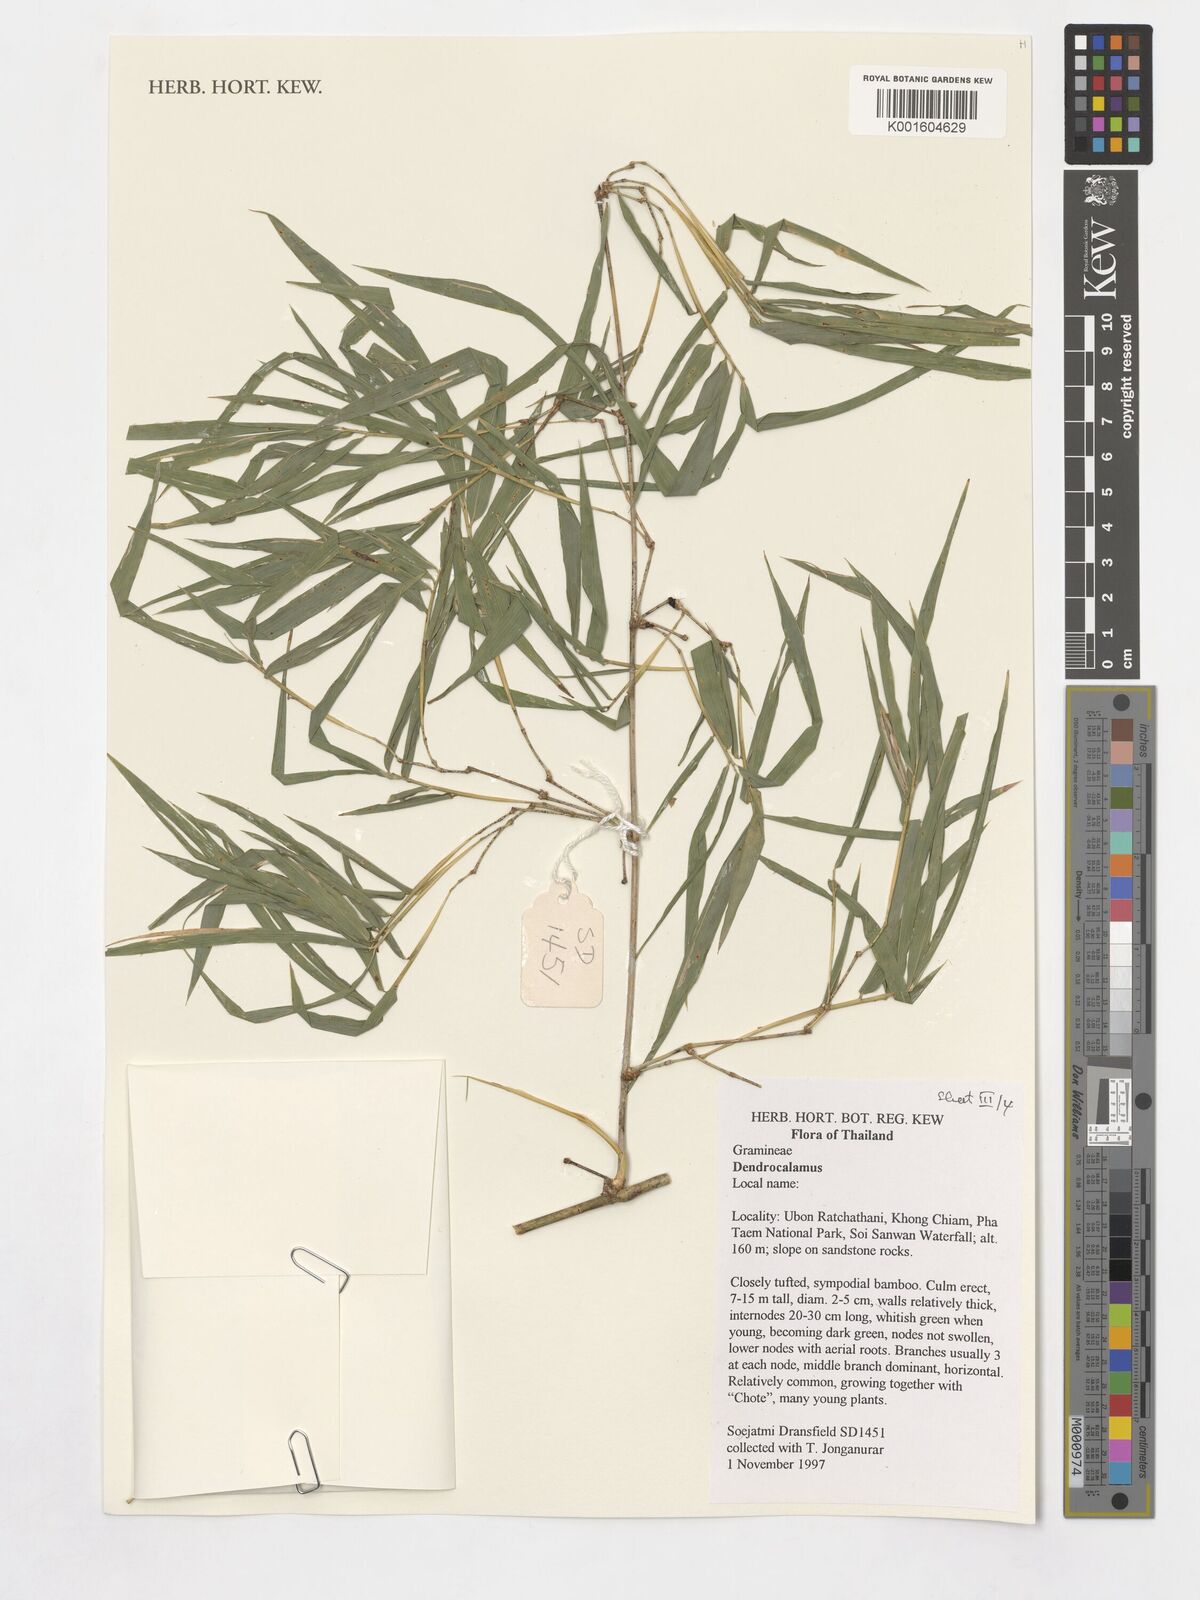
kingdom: Plantae
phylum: Tracheophyta
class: Liliopsida
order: Poales
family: Poaceae
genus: Dendrocalamus
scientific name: Dendrocalamus
